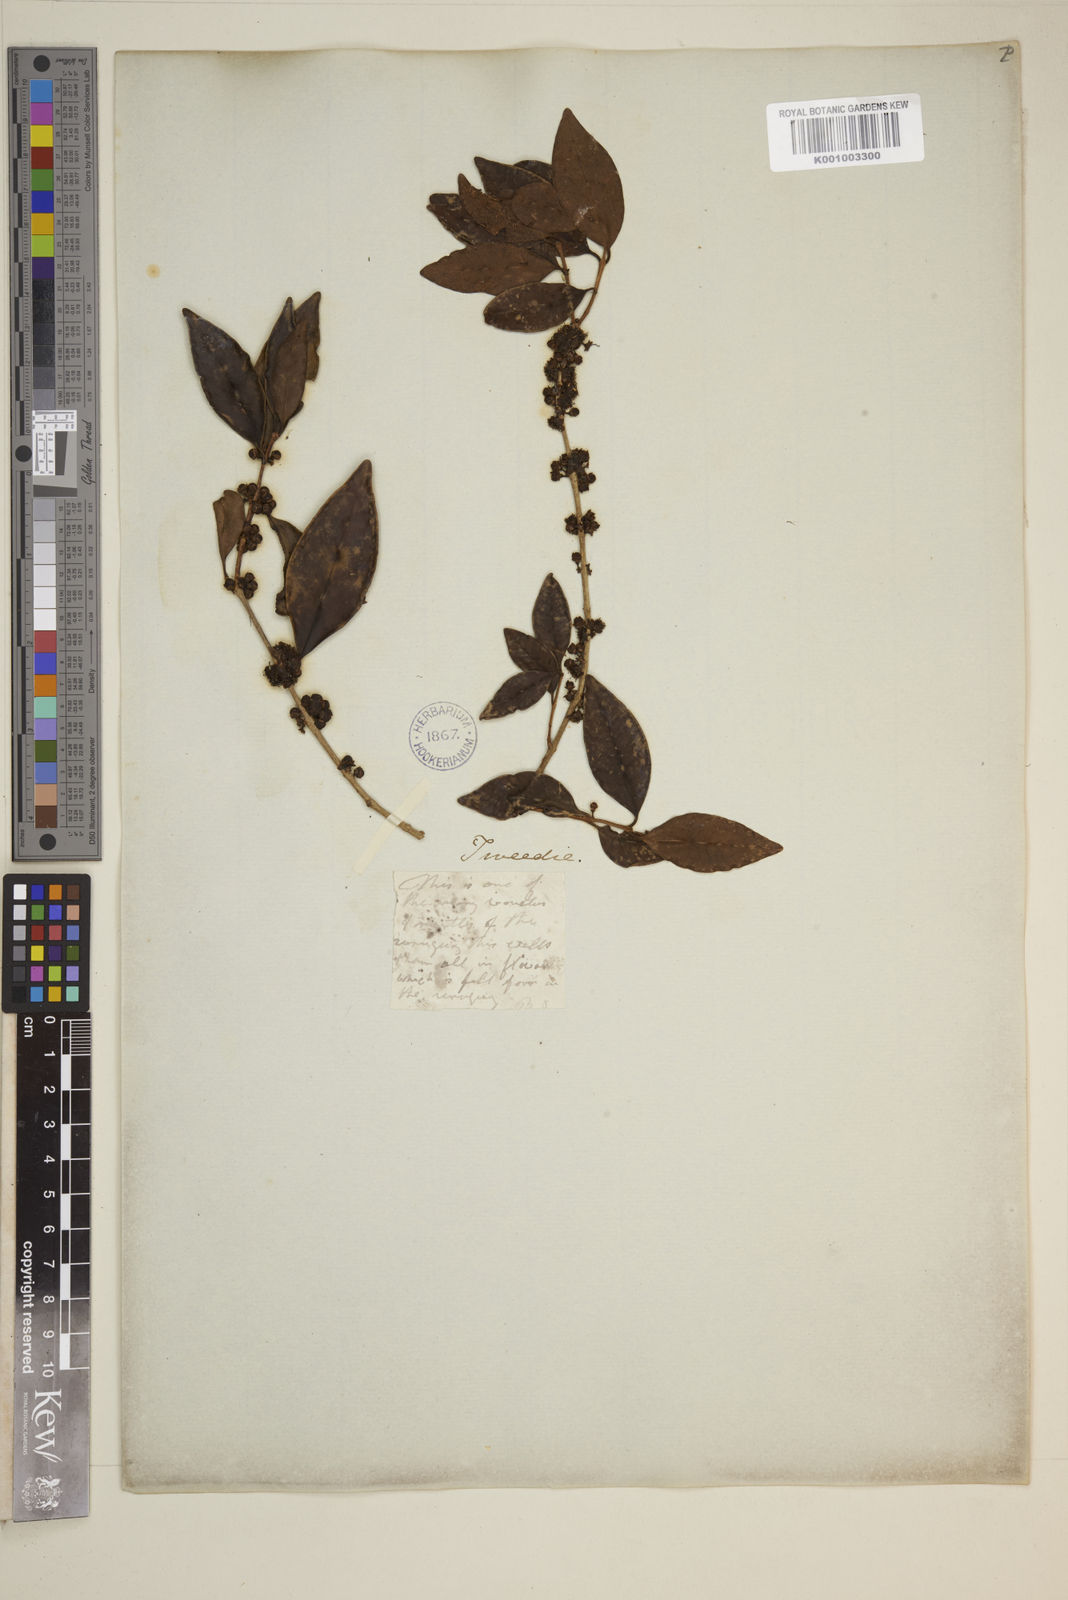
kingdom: Plantae
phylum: Tracheophyta
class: Magnoliopsida
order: Myrtales
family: Myrtaceae
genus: Eugenia
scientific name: Eugenia
